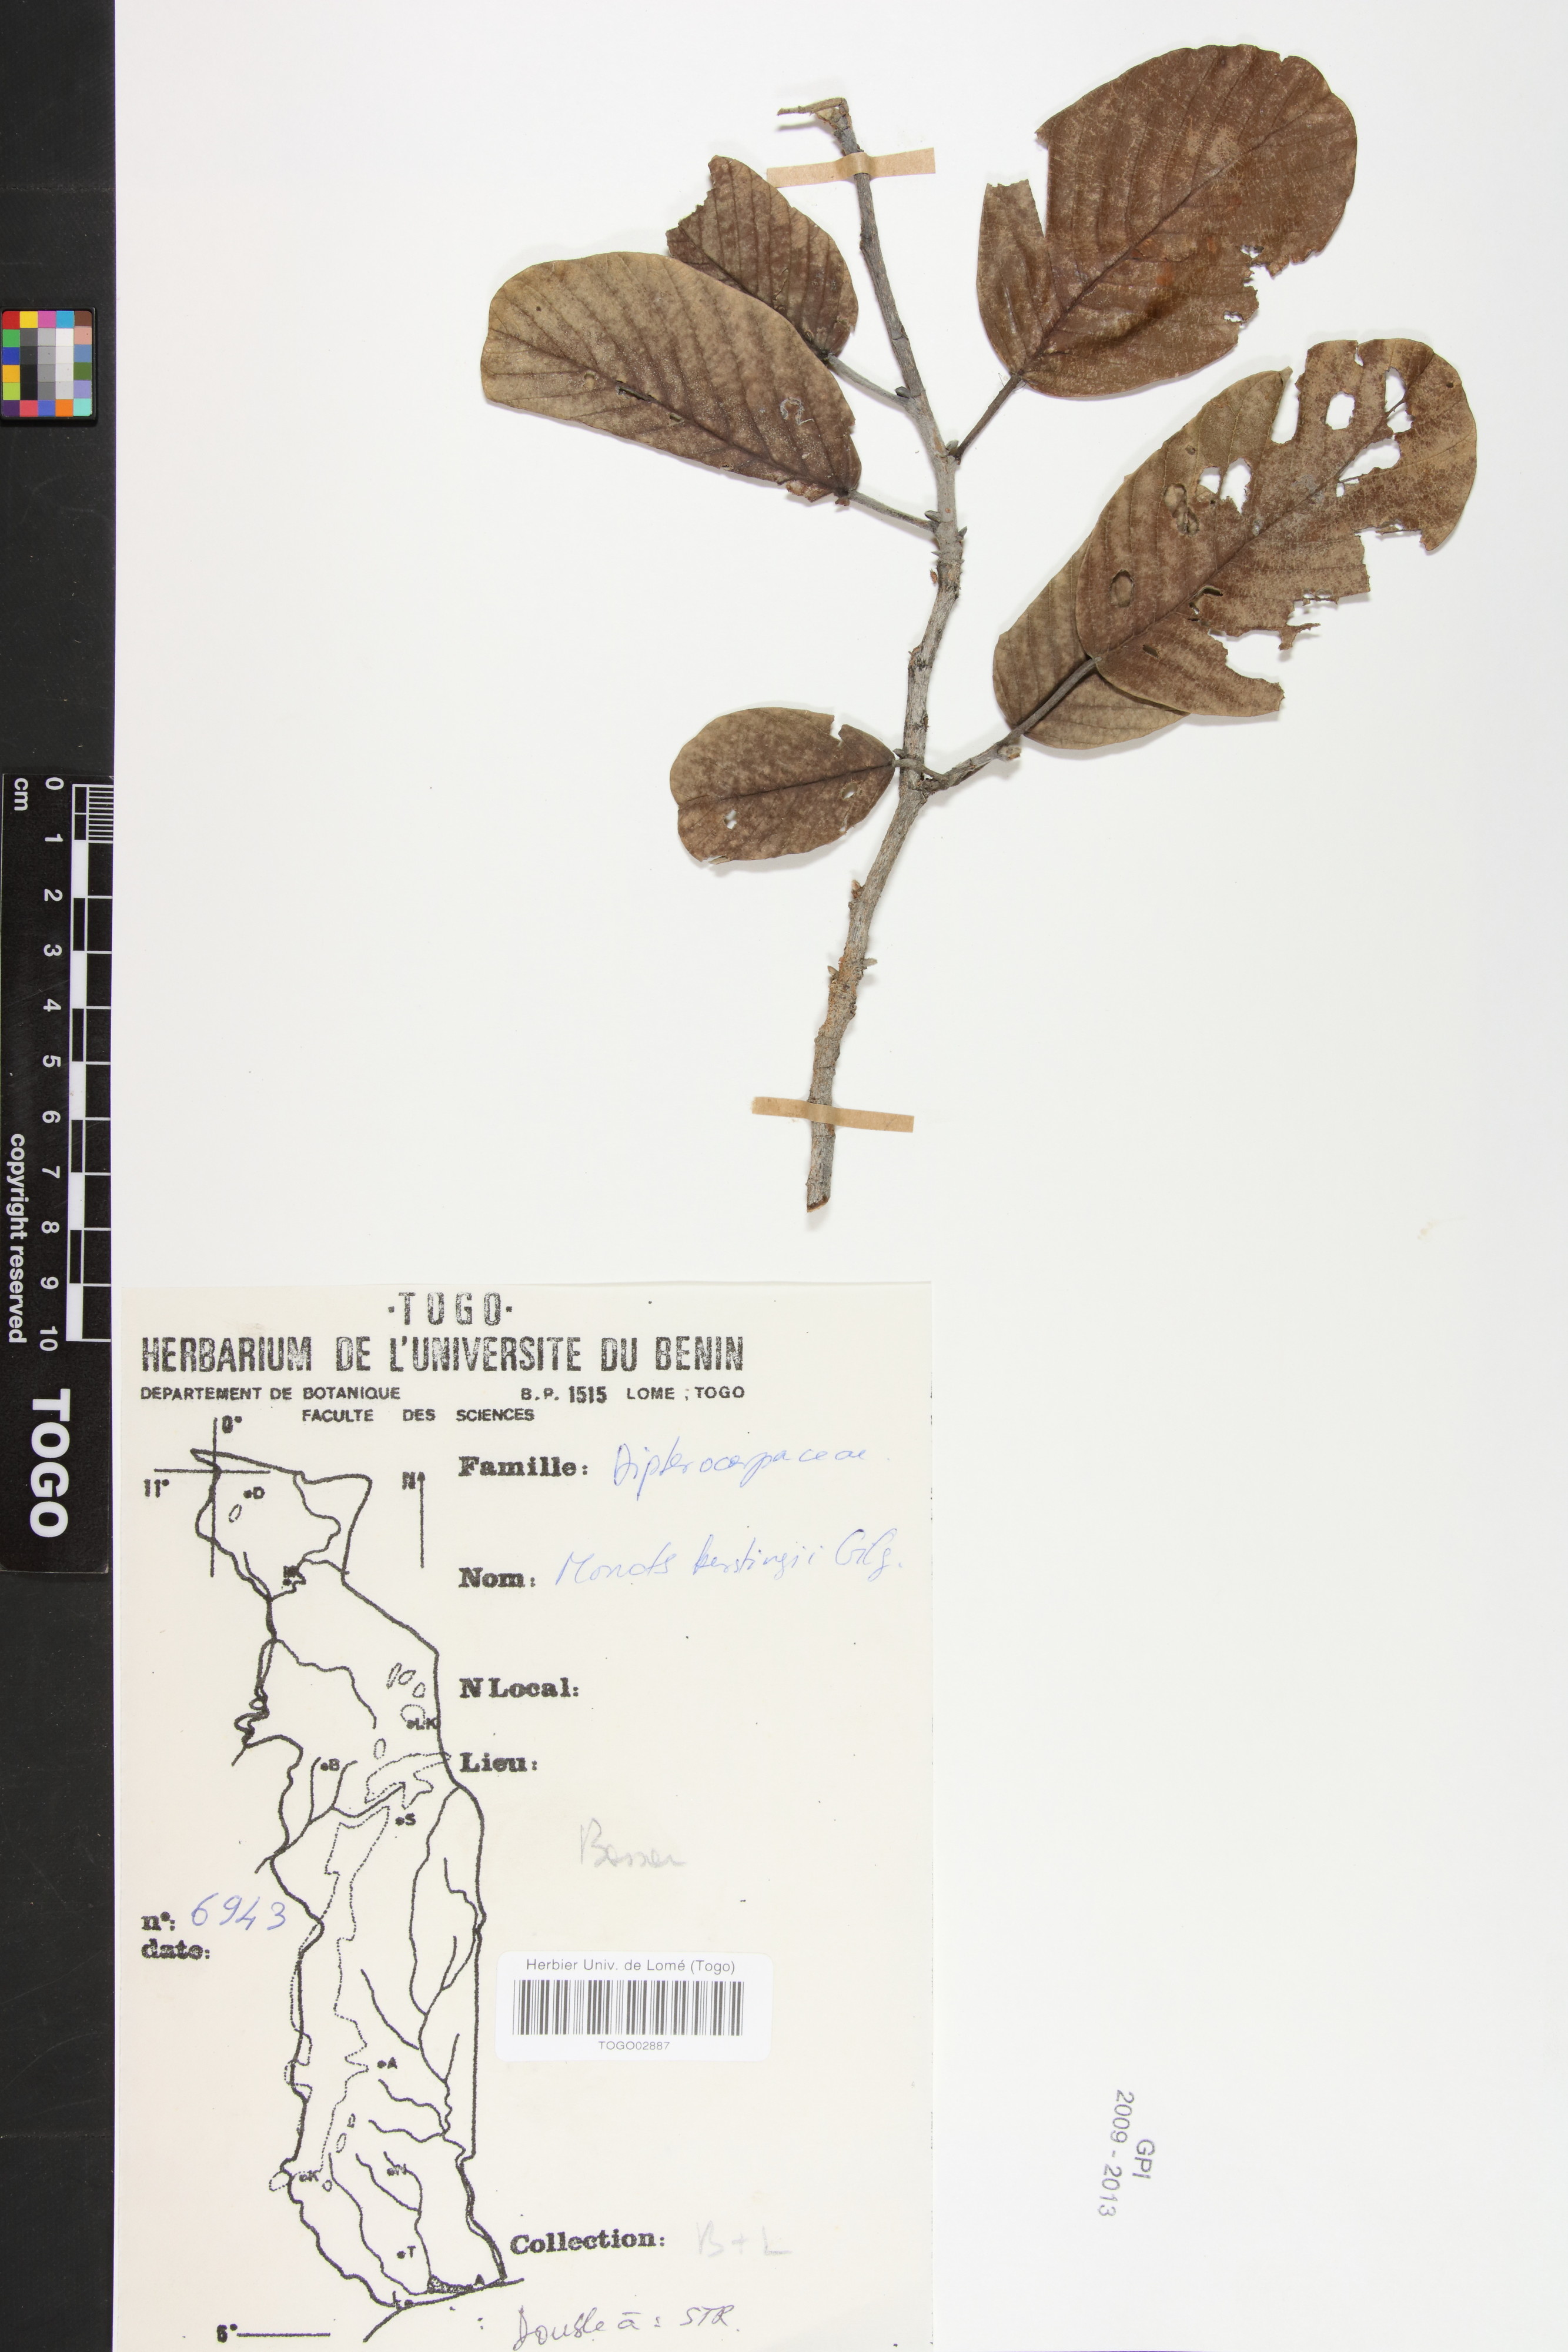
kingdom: Plantae
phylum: Tracheophyta
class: Magnoliopsida
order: Malvales
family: Dipterocarpaceae
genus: Monotes
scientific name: Monotes kerstingii
